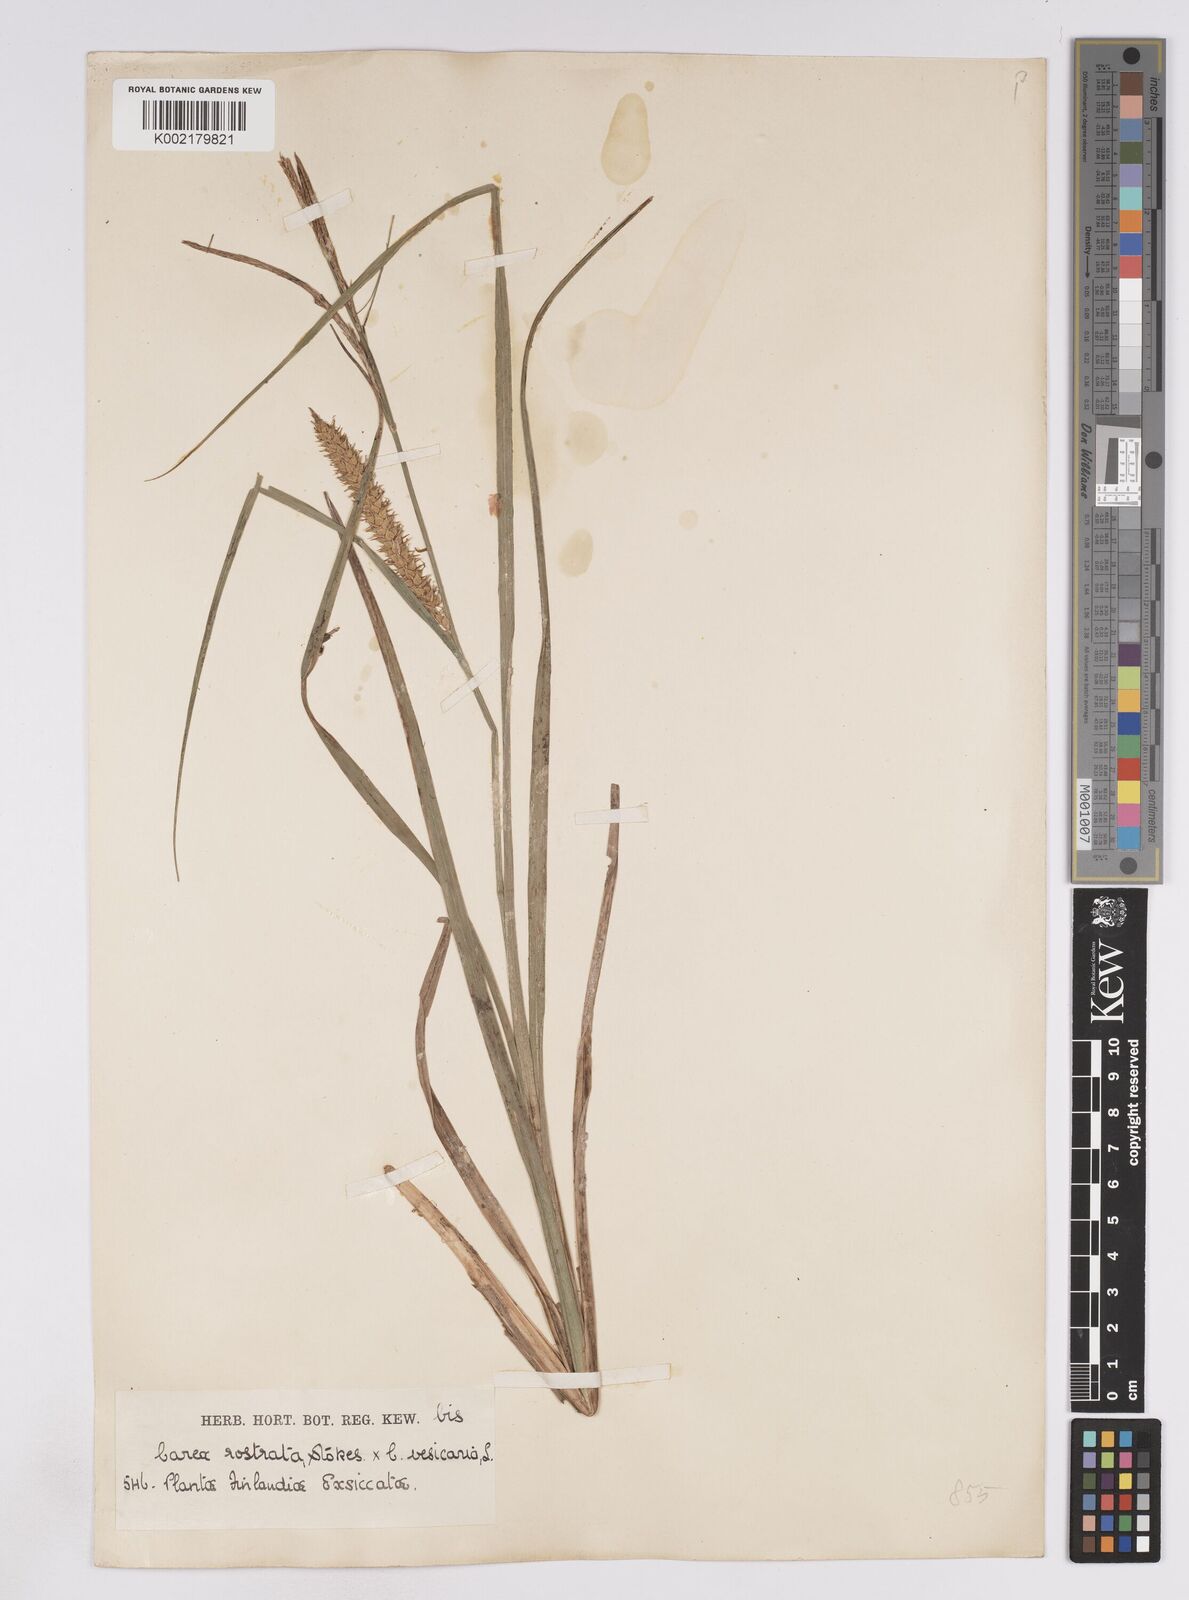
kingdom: Plantae
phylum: Tracheophyta
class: Liliopsida
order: Poales
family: Cyperaceae
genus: Carex
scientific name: Carex rostrata
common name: Bottle sedge
